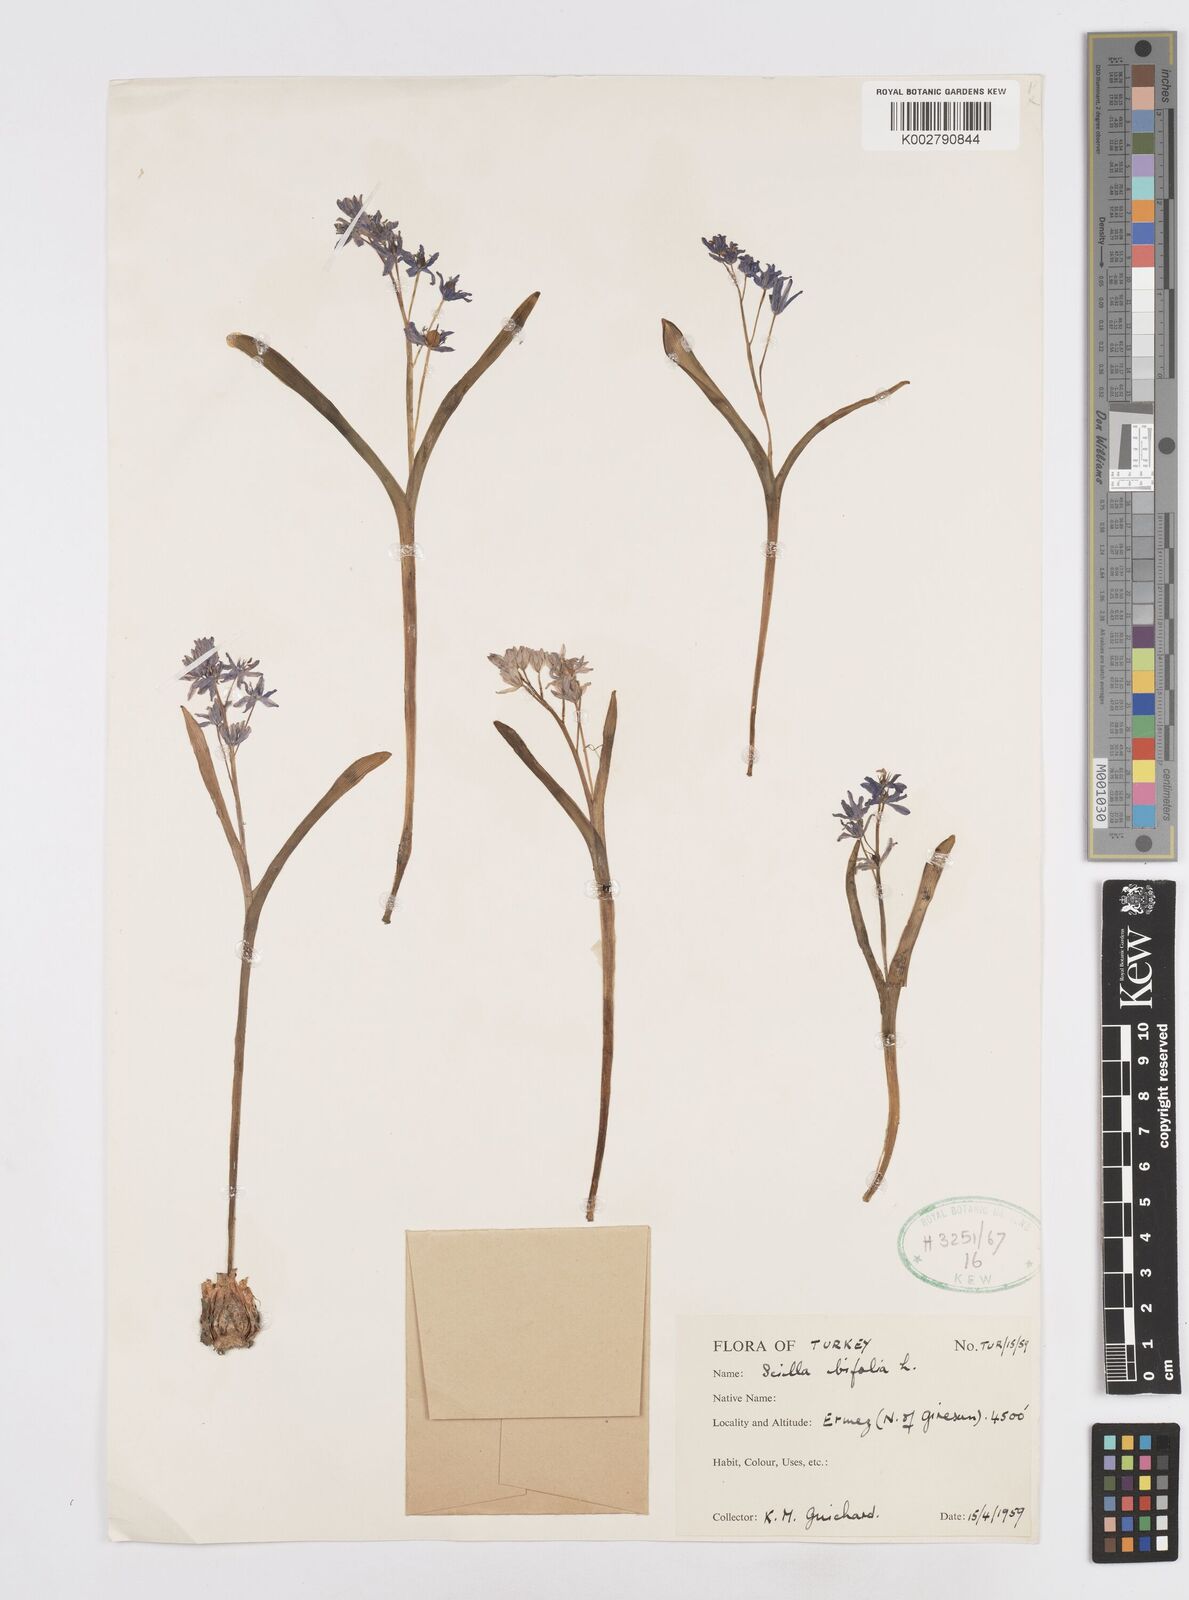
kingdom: Plantae
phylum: Tracheophyta
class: Liliopsida
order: Asparagales
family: Asparagaceae
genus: Scilla
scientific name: Scilla bifolia
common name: Alpine squill
